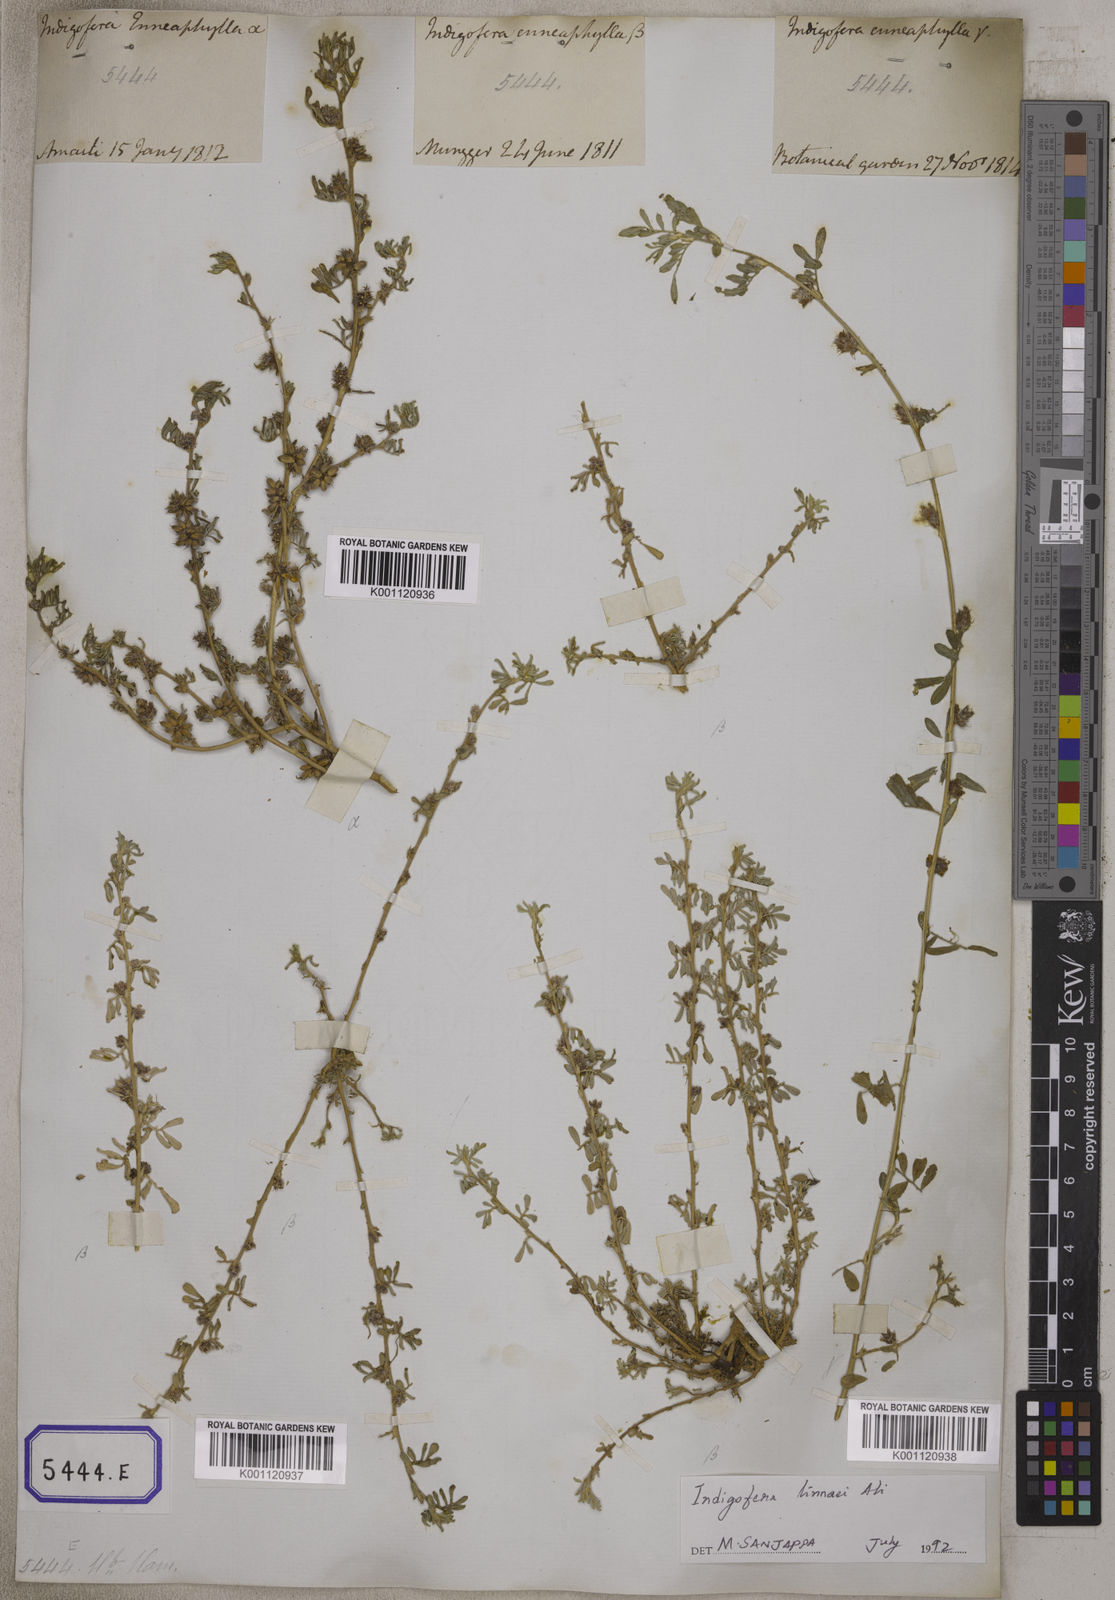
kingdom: Plantae
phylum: Tracheophyta
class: Magnoliopsida
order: Fabales
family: Fabaceae
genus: Indigofera
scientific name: Indigofera linnaei
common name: Nine-leaf indigo
